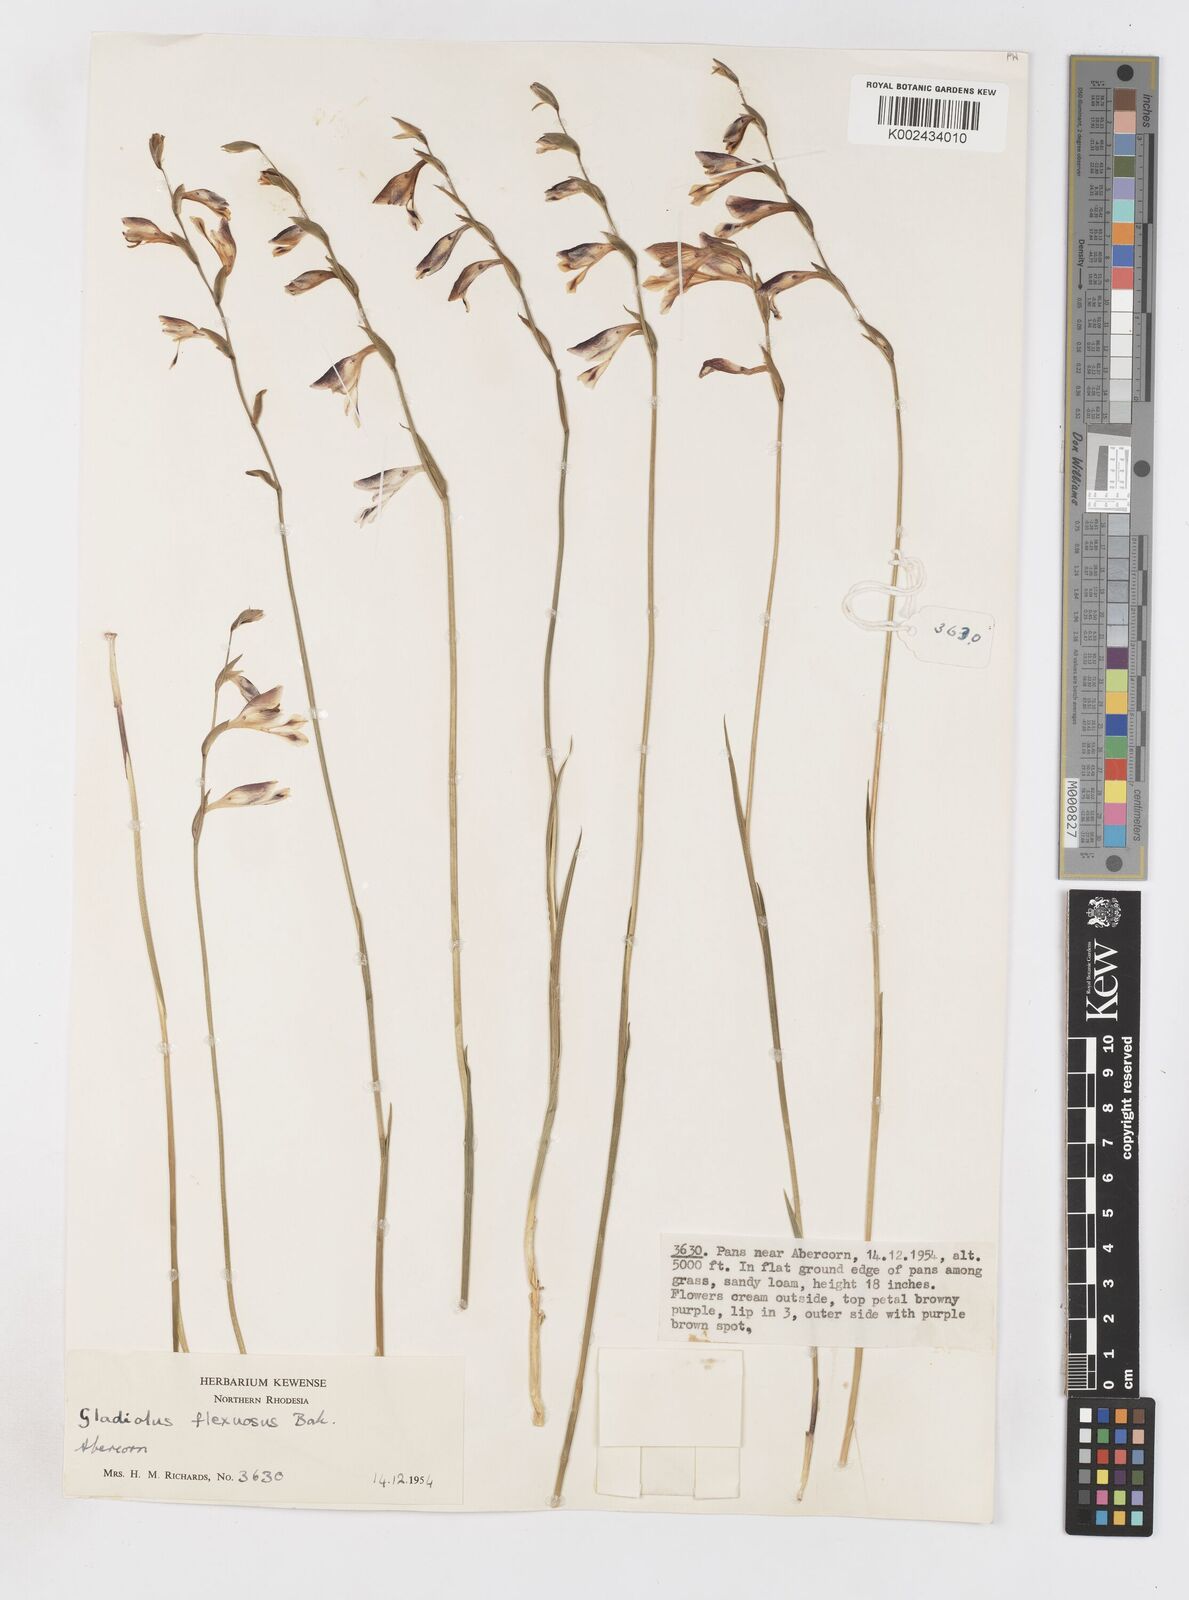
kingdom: Plantae
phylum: Tracheophyta
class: Liliopsida
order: Asparagales
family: Iridaceae
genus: Gladiolus
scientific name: Gladiolus atropurpureus
